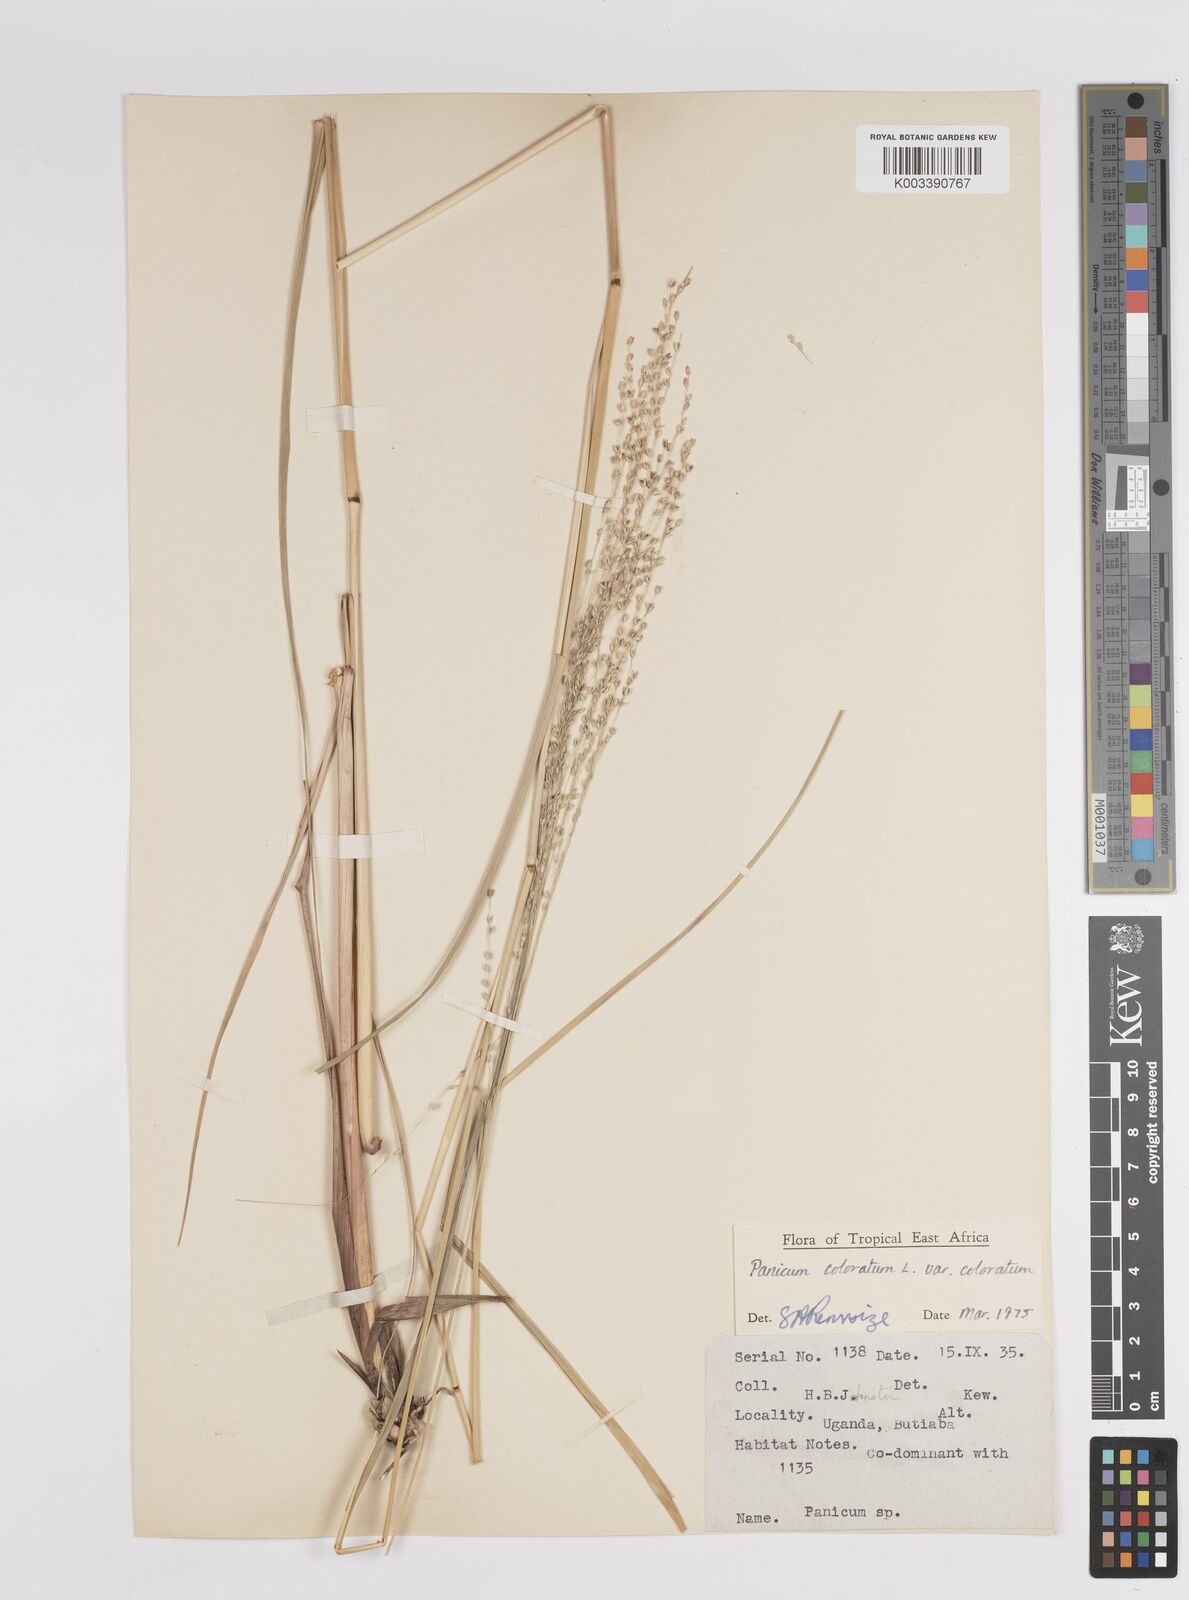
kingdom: Plantae
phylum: Tracheophyta
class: Liliopsida
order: Poales
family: Poaceae
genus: Panicum
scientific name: Panicum coloratum
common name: Kleingrass
